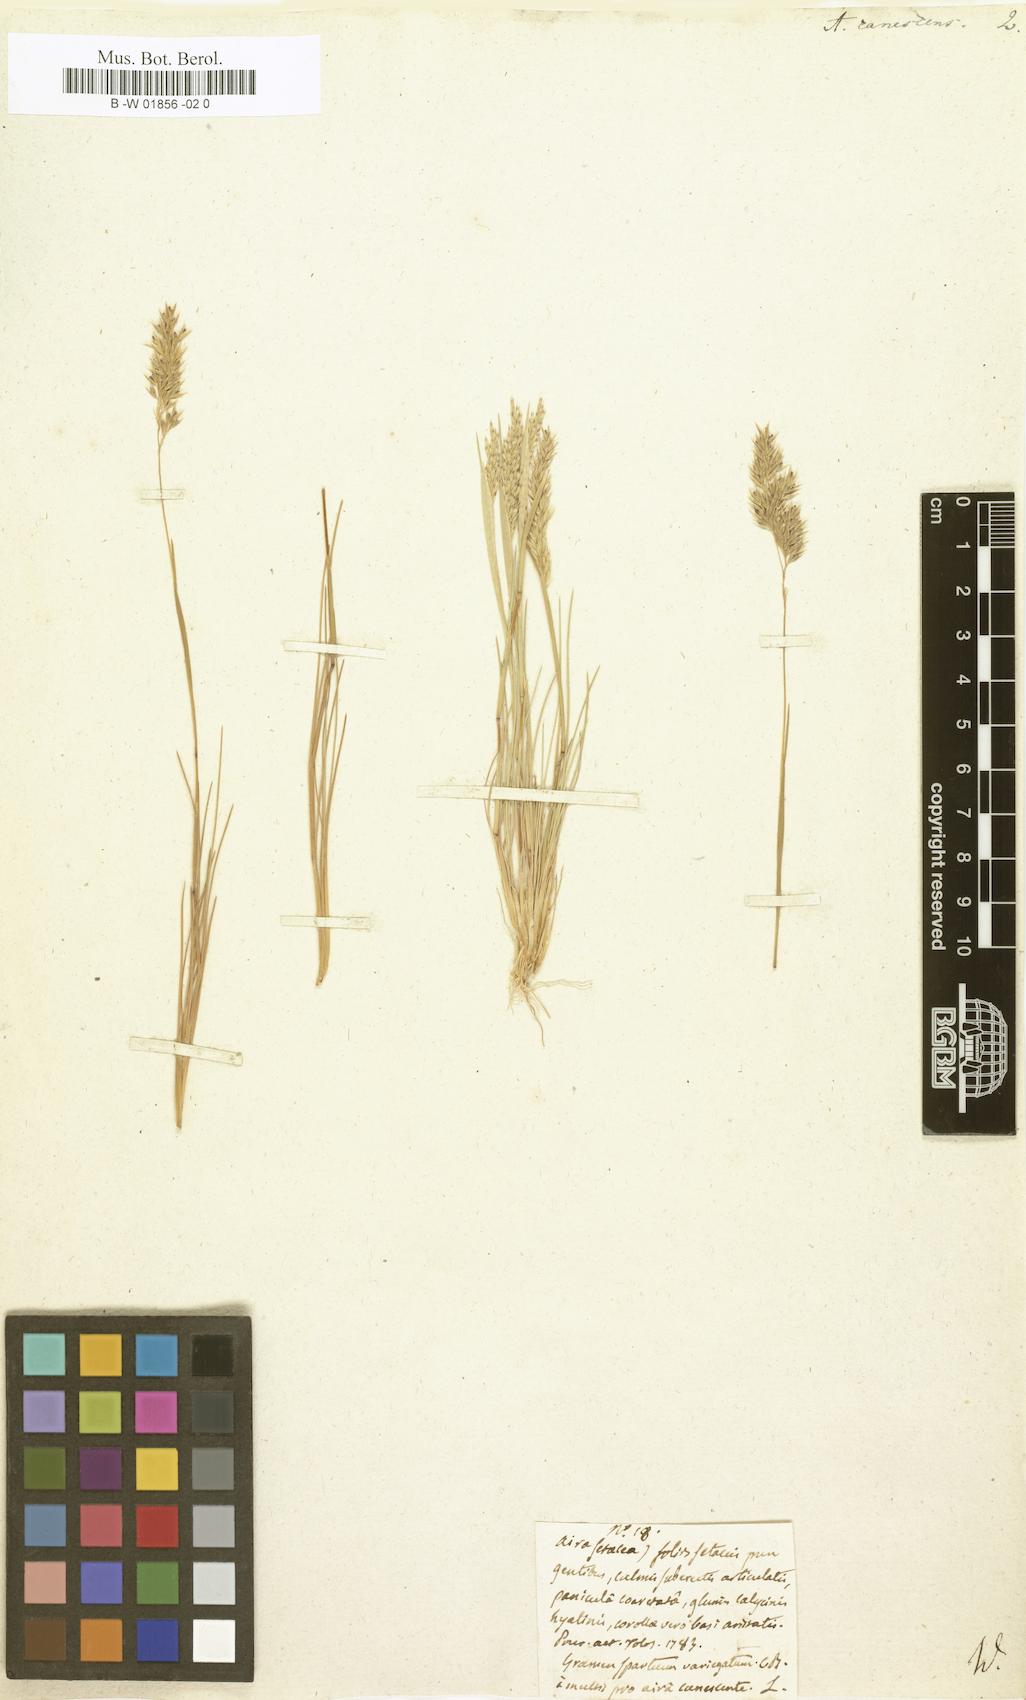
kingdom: Plantae
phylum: Tracheophyta
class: Liliopsida
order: Poales
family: Poaceae
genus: Corynephorus
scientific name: Corynephorus canescens
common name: Grey hair-grass
